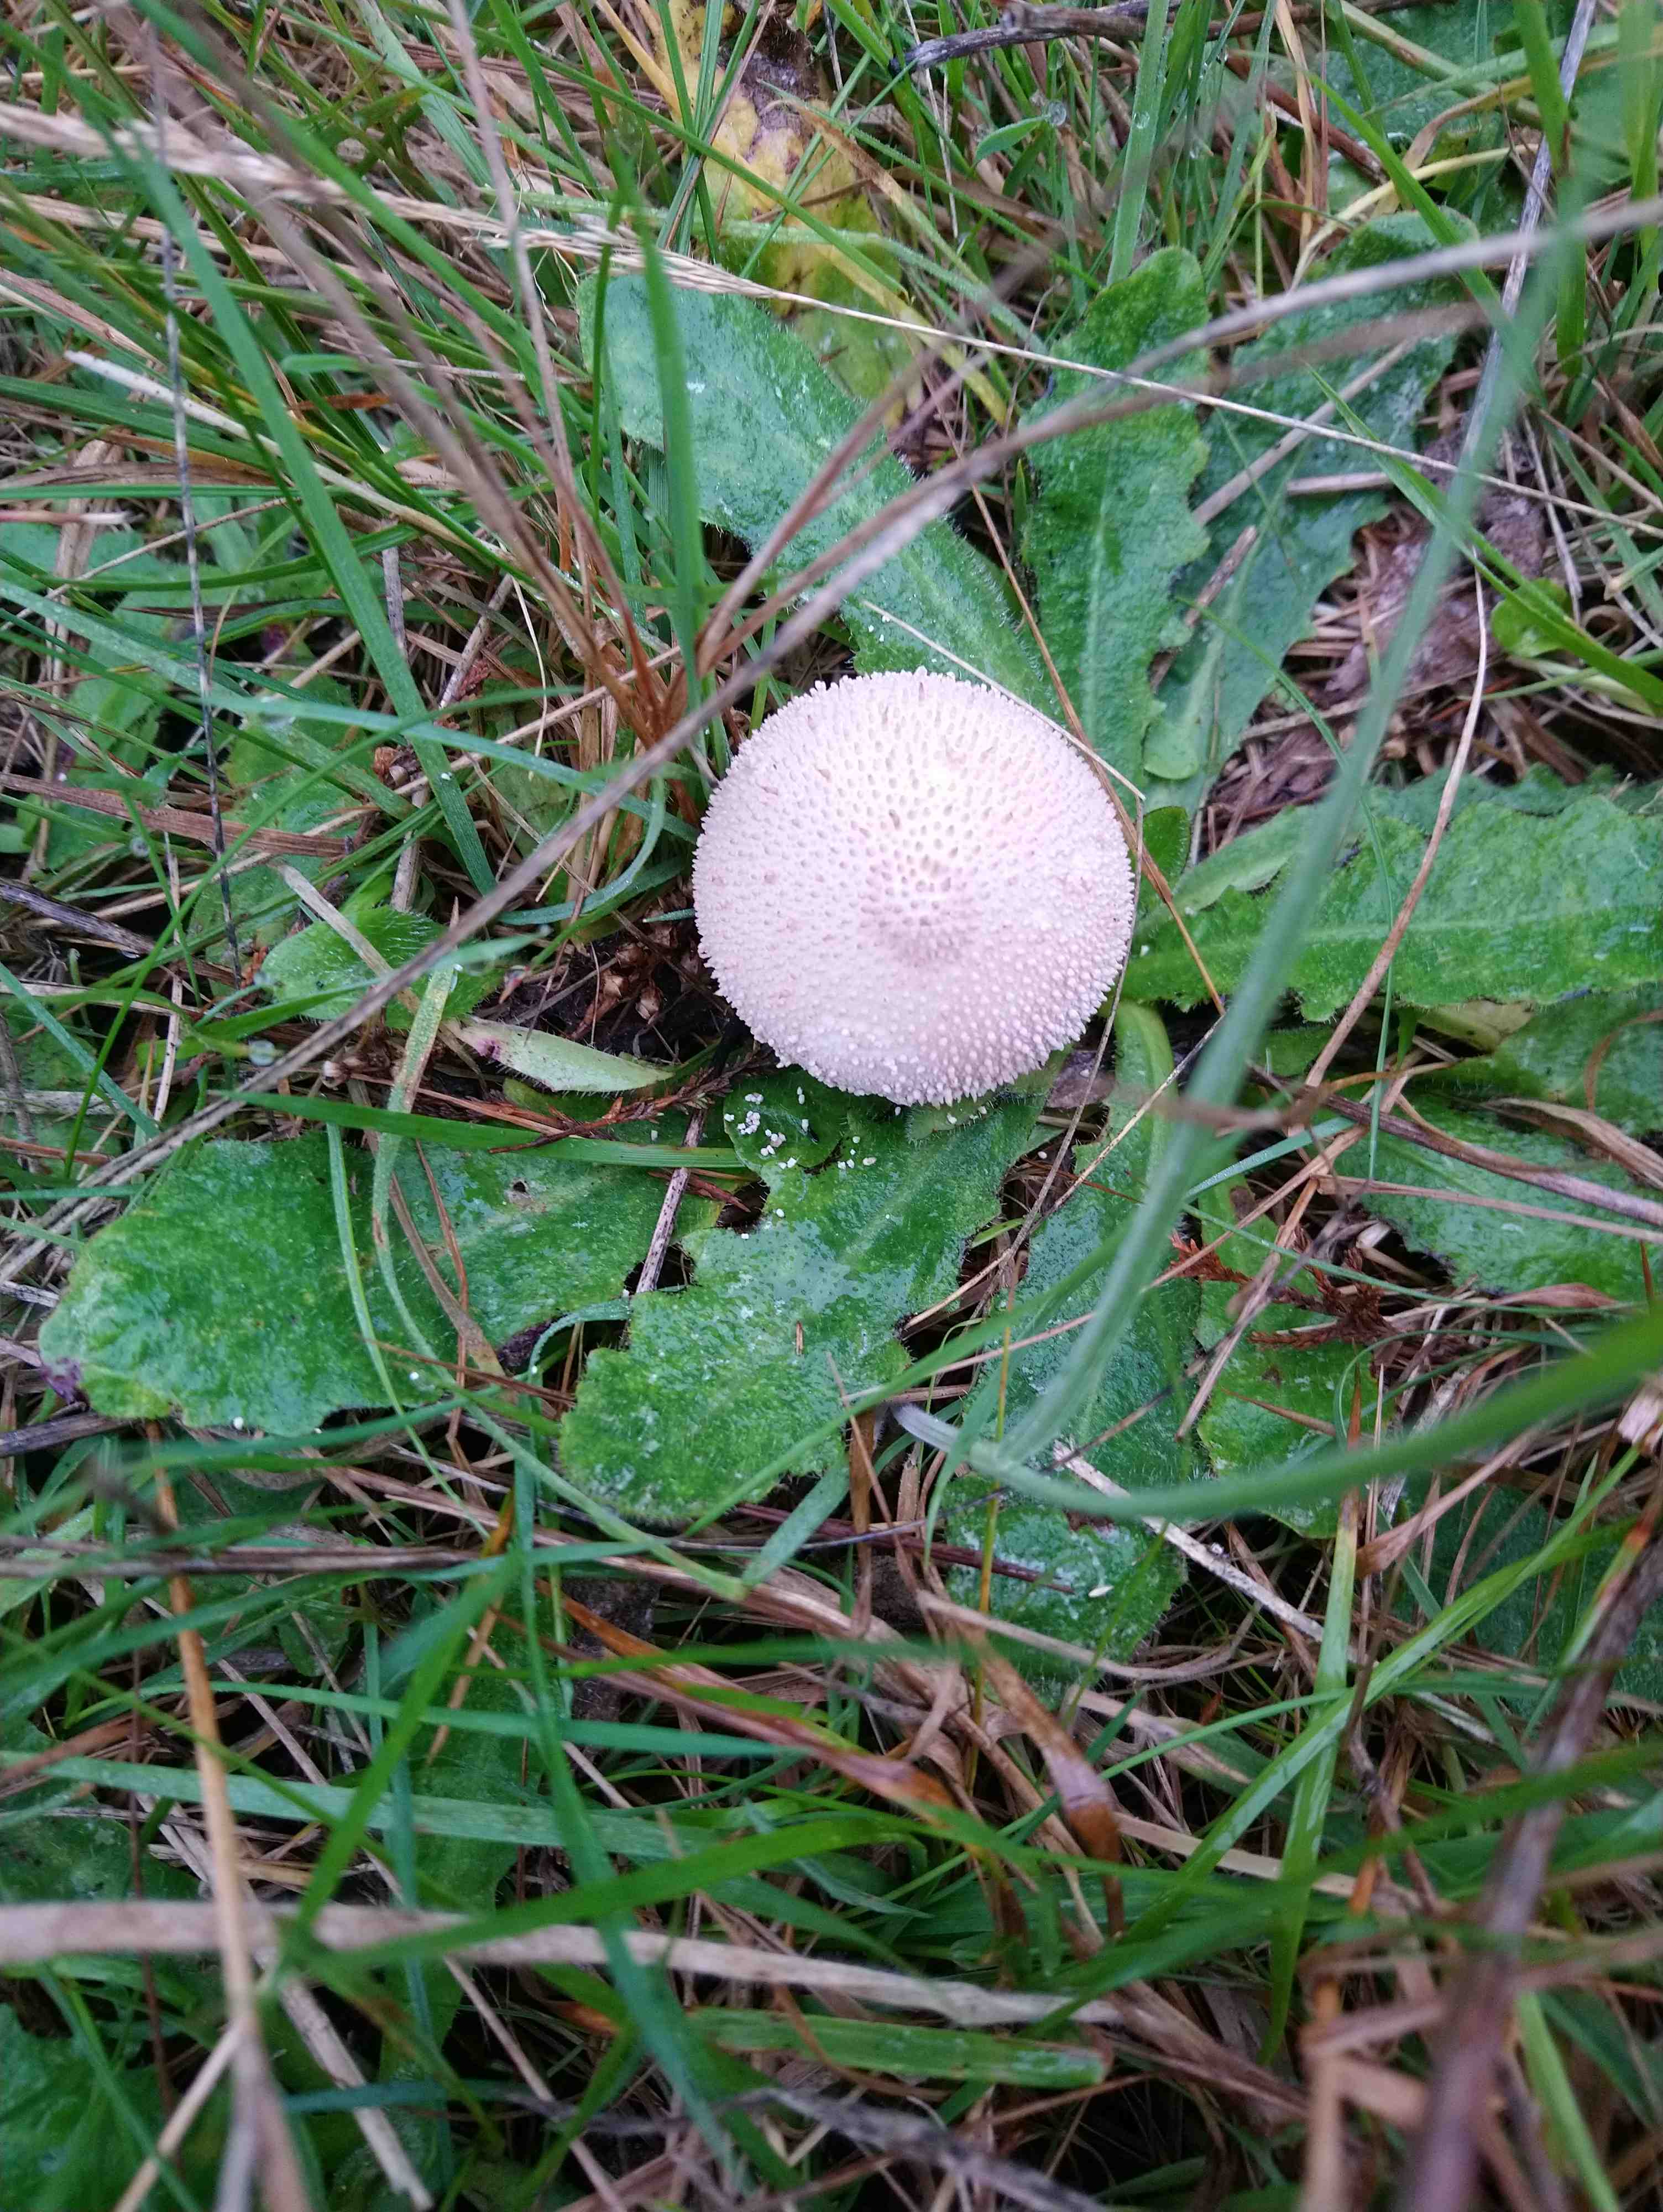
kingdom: Fungi
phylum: Basidiomycota
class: Agaricomycetes
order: Agaricales
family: Lycoperdaceae
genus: Lycoperdon
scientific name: Lycoperdon perlatum
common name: krystal-støvbold
